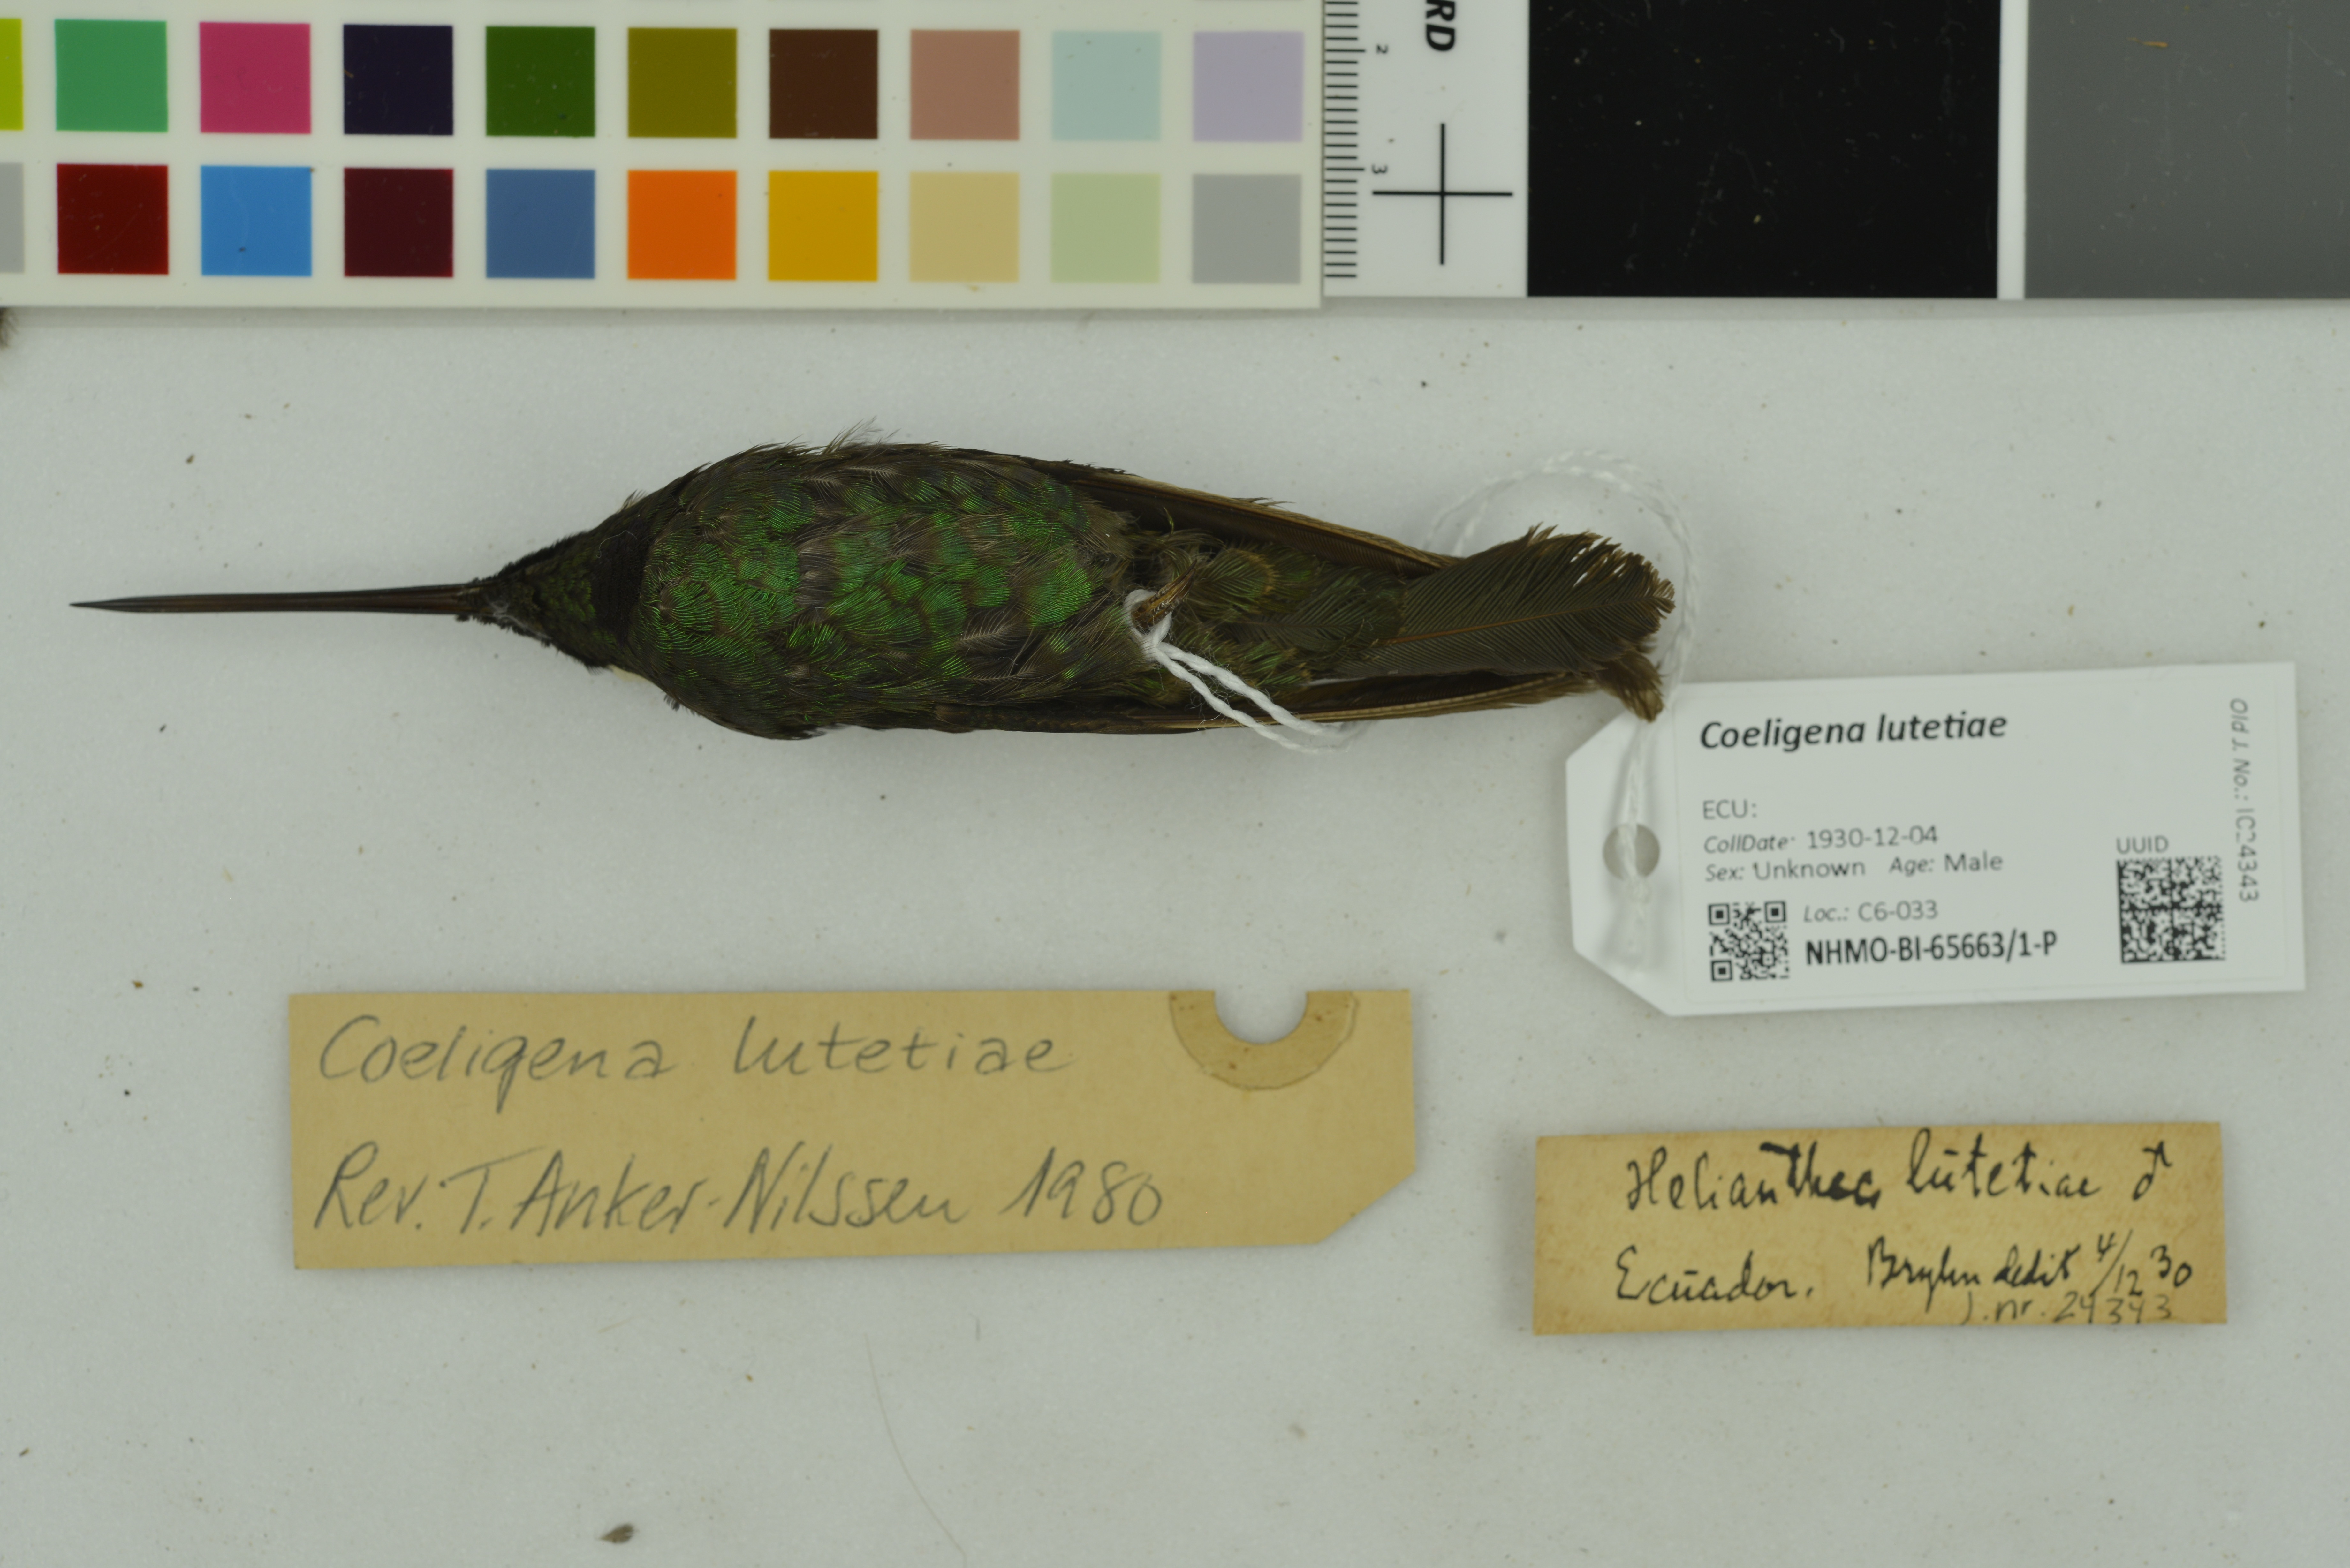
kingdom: Animalia
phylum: Chordata
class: Aves
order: Apodiformes
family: Trochilidae
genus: Coeligena
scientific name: Coeligena lutetiae
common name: Buff-winged starfrontlet
